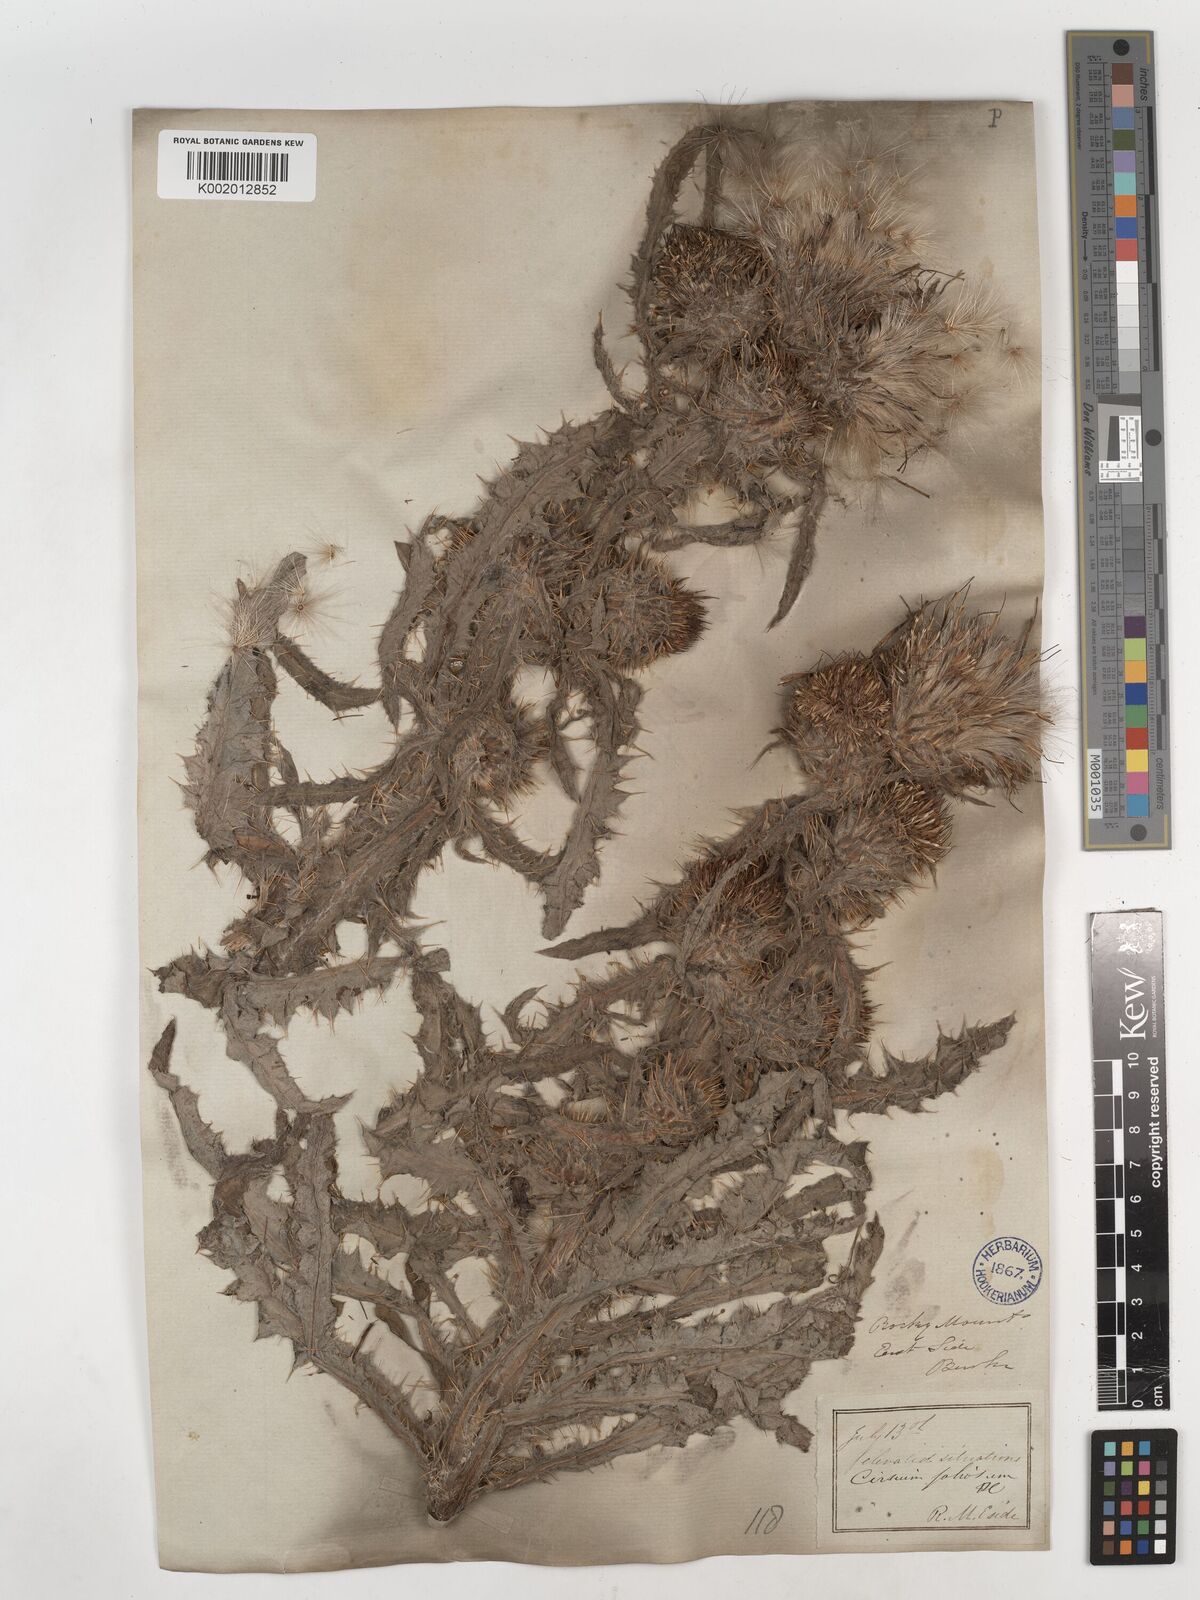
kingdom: Plantae
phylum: Tracheophyta
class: Magnoliopsida
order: Asterales
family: Asteraceae
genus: Cirsium
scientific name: Cirsium hookerianum
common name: Hooker's thistle
